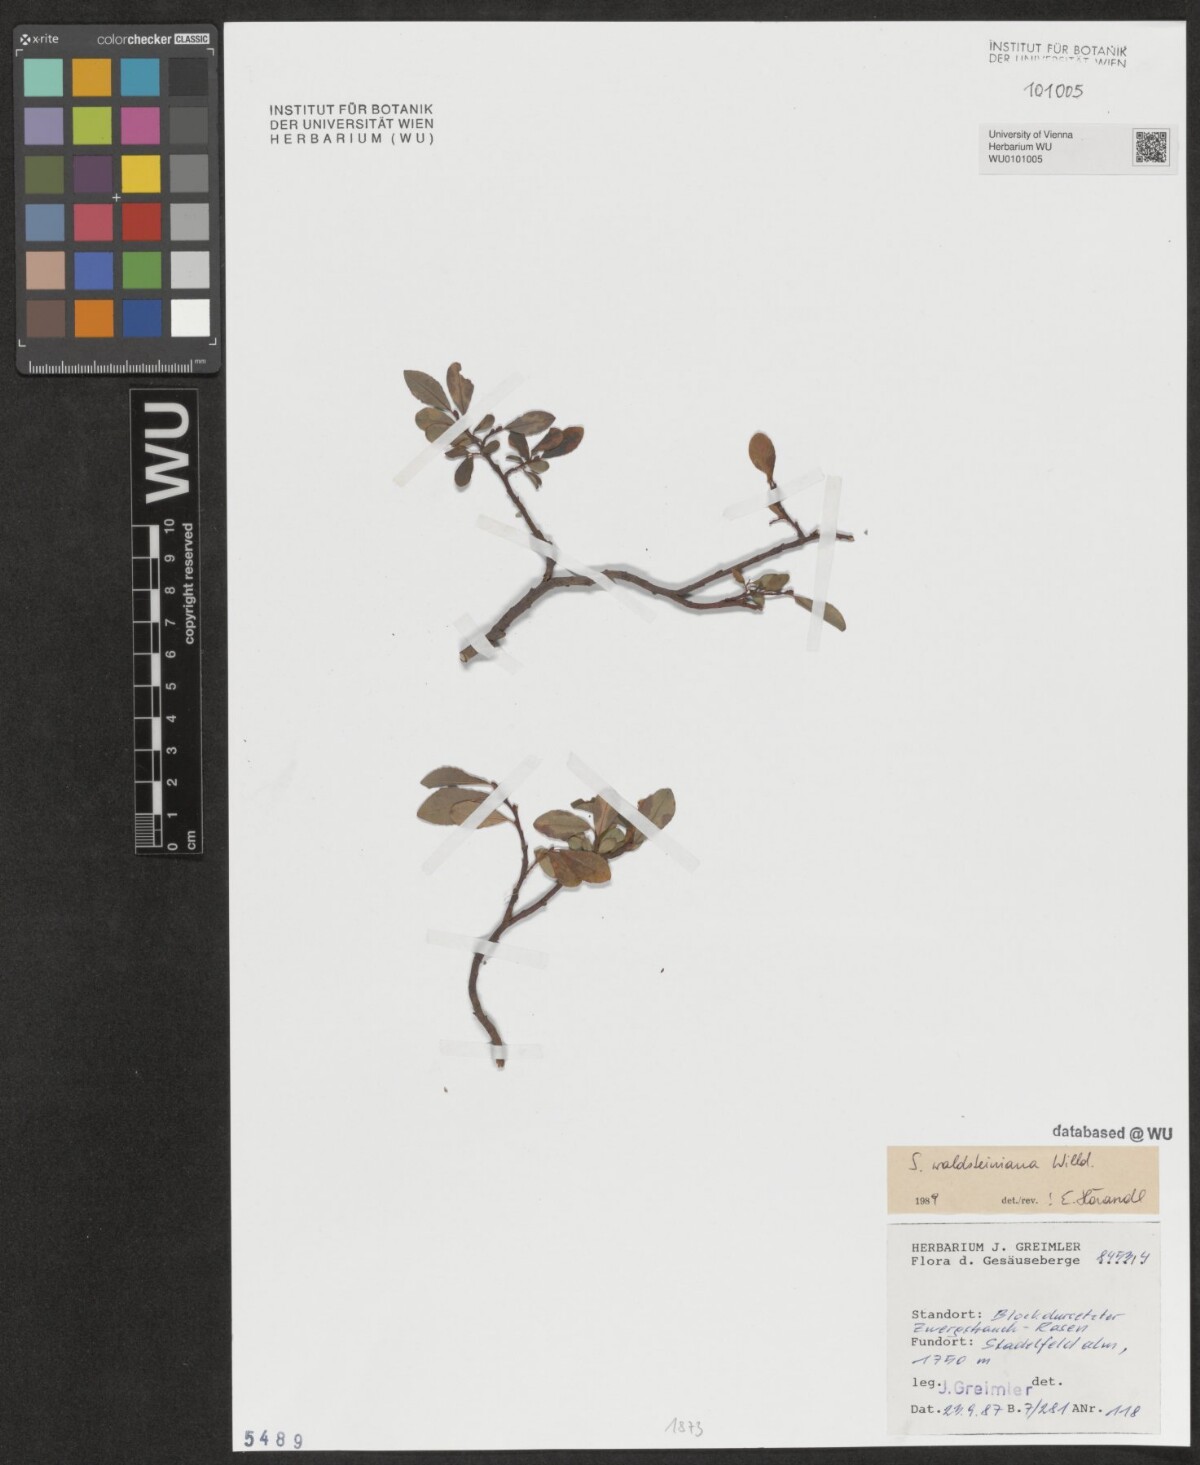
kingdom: Plantae
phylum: Tracheophyta
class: Magnoliopsida
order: Malpighiales
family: Salicaceae
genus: Salix
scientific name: Salix waldsteiniana
